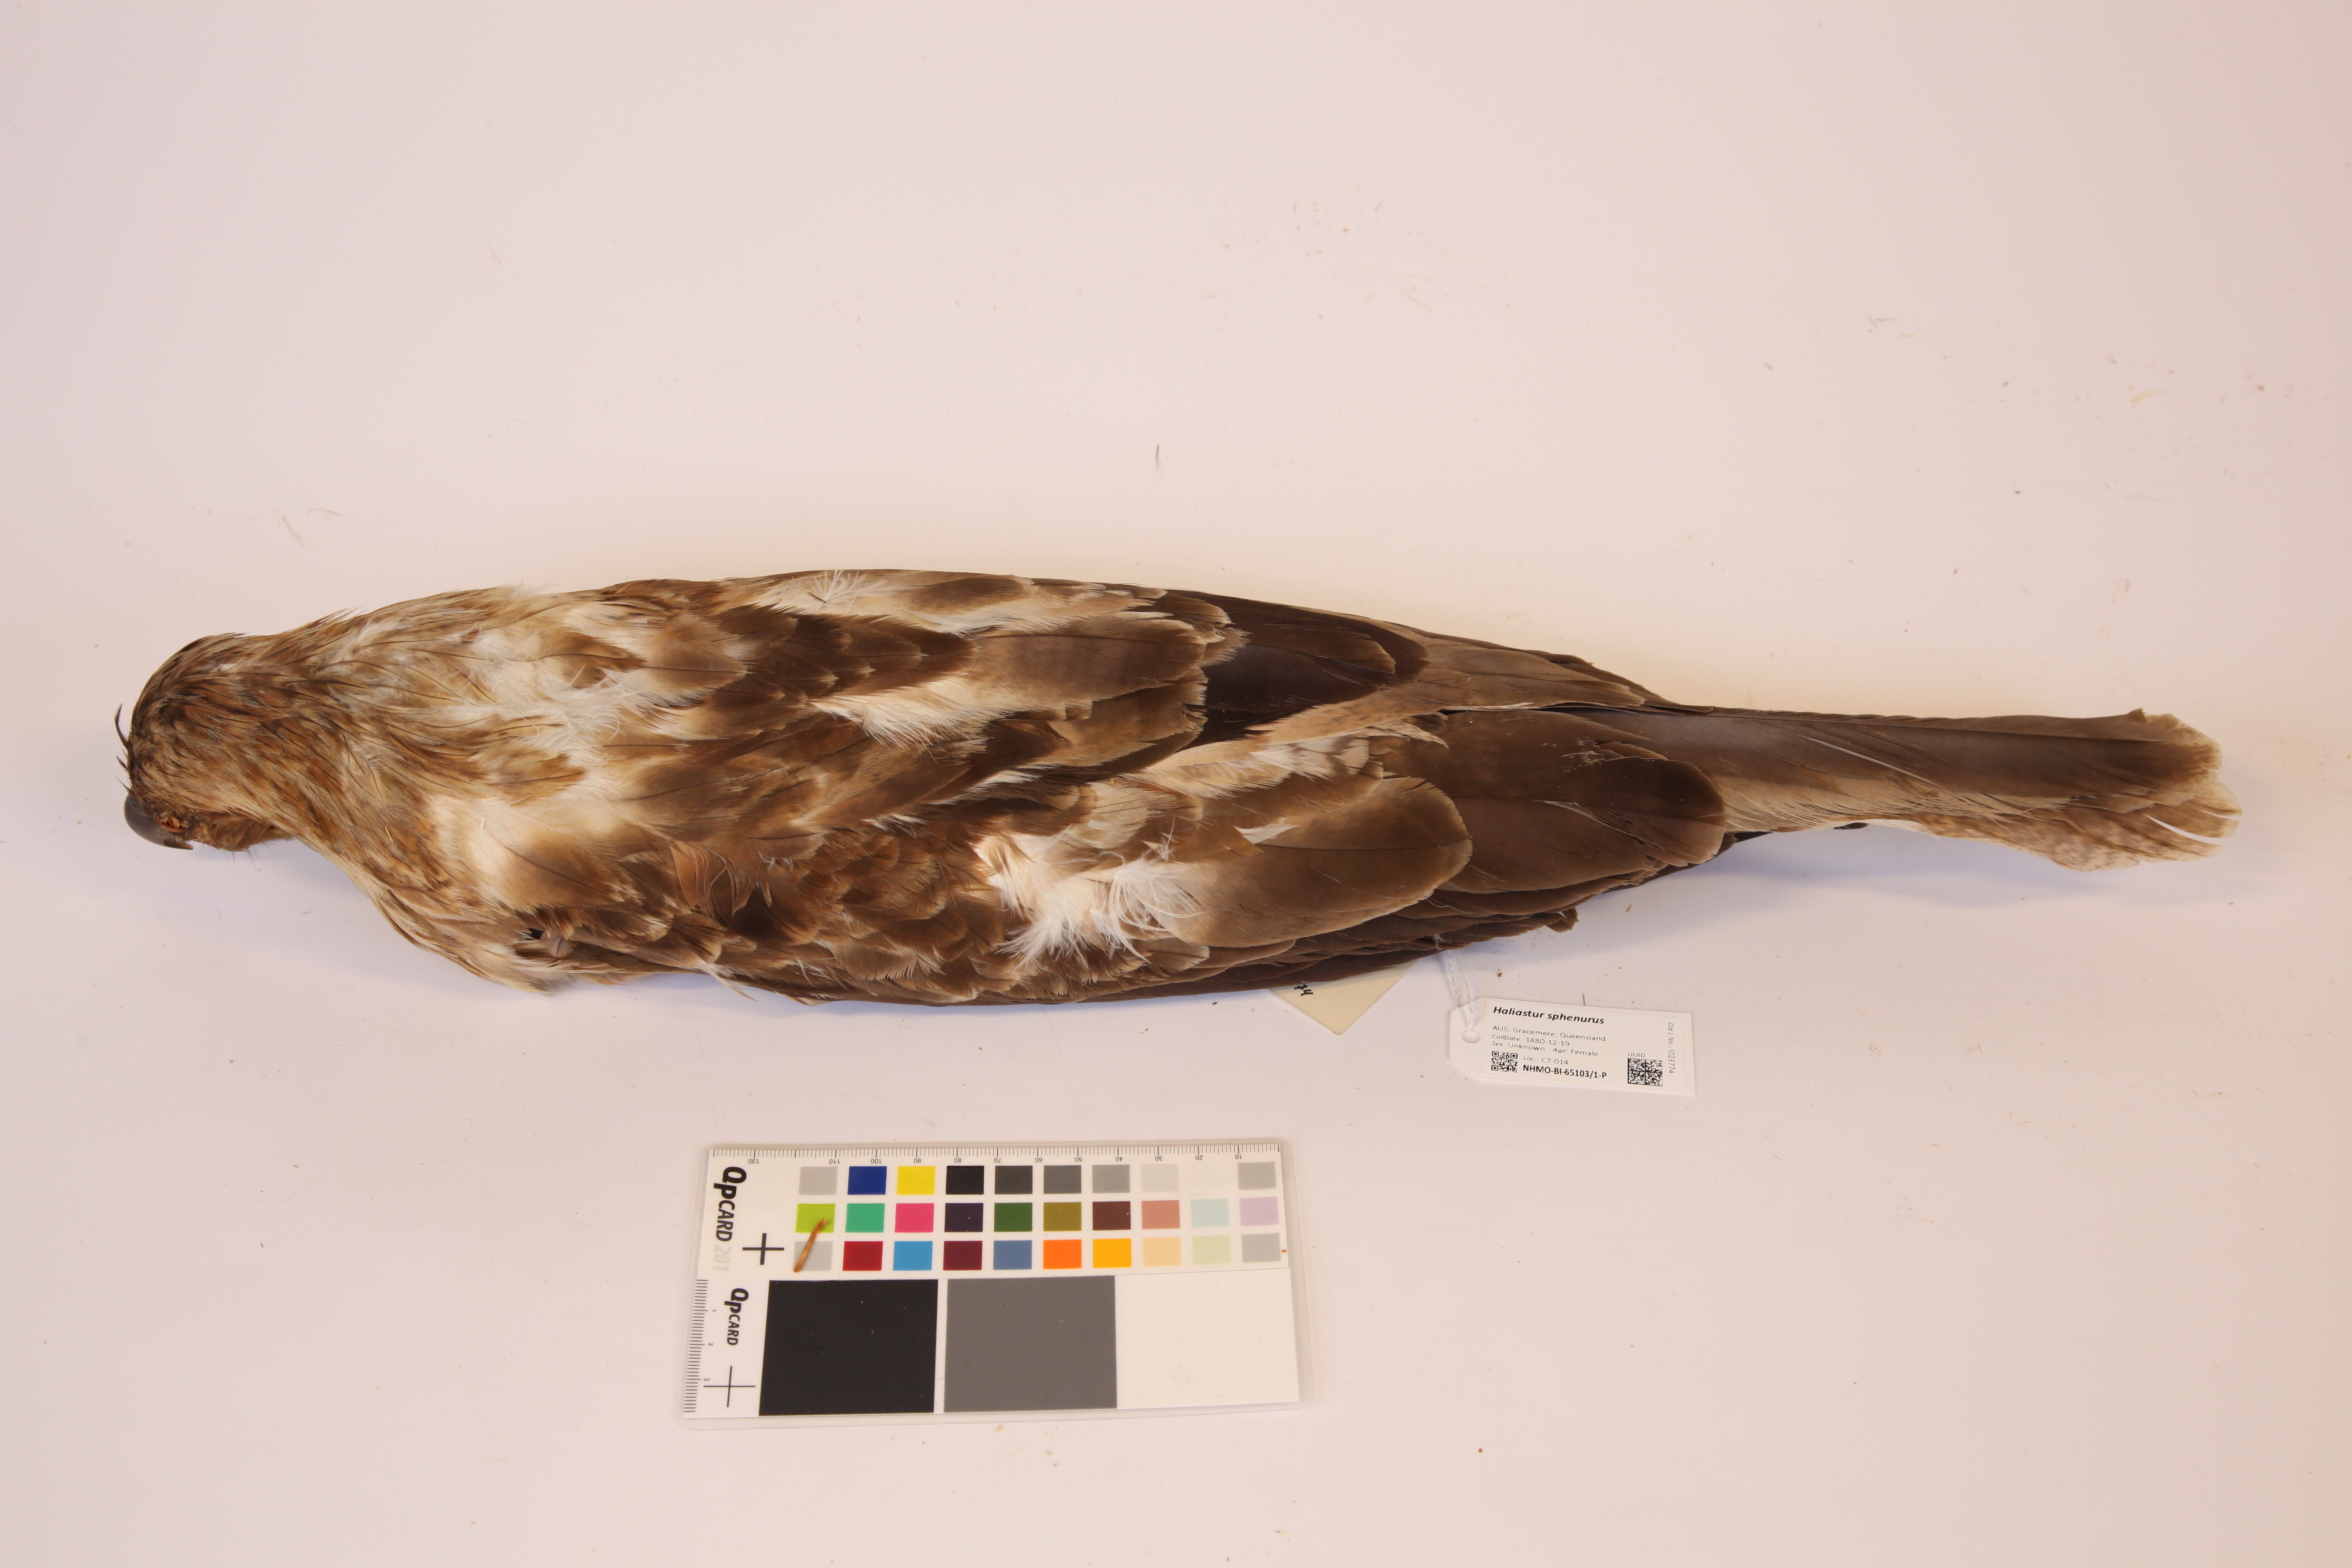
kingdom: Animalia
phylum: Chordata
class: Aves
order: Accipitriformes
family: Accipitridae
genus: Haliastur
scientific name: Haliastur sphenurus
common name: Whistling kite
